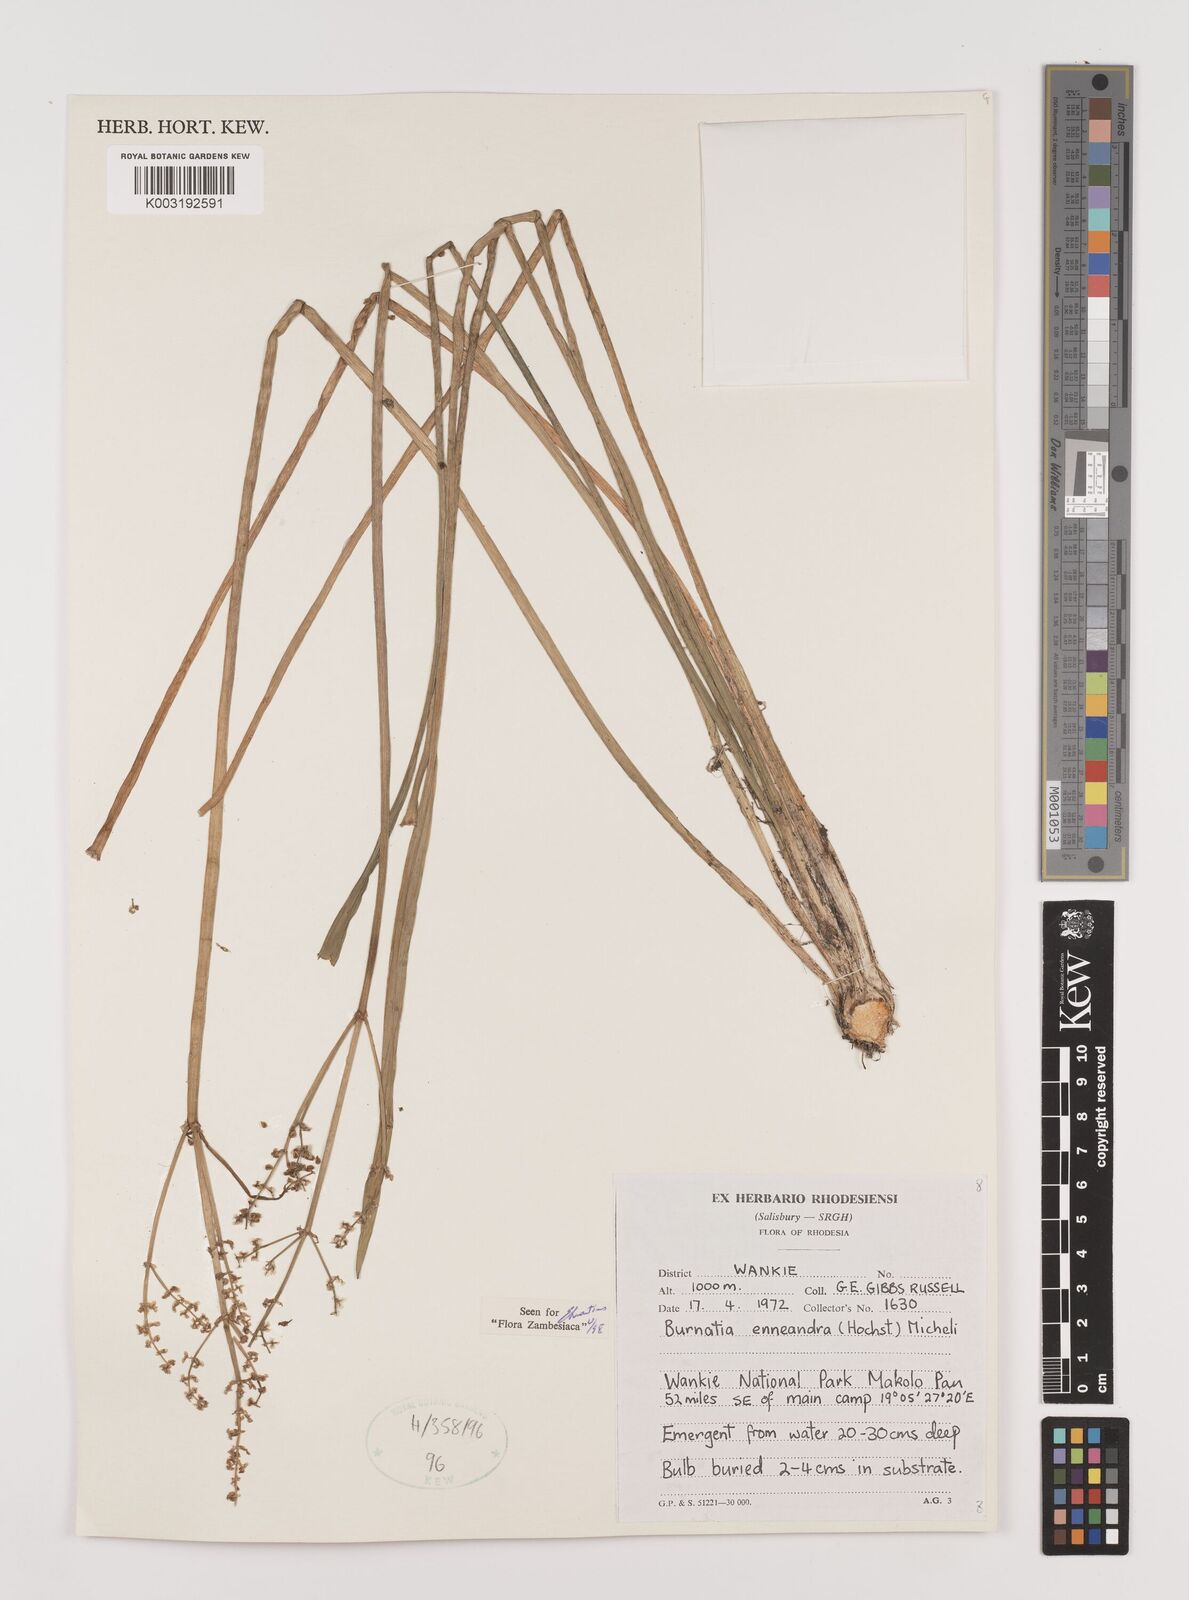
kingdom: Plantae
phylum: Tracheophyta
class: Liliopsida
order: Alismatales
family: Alismataceae
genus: Burnatia
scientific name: Burnatia enneandra
